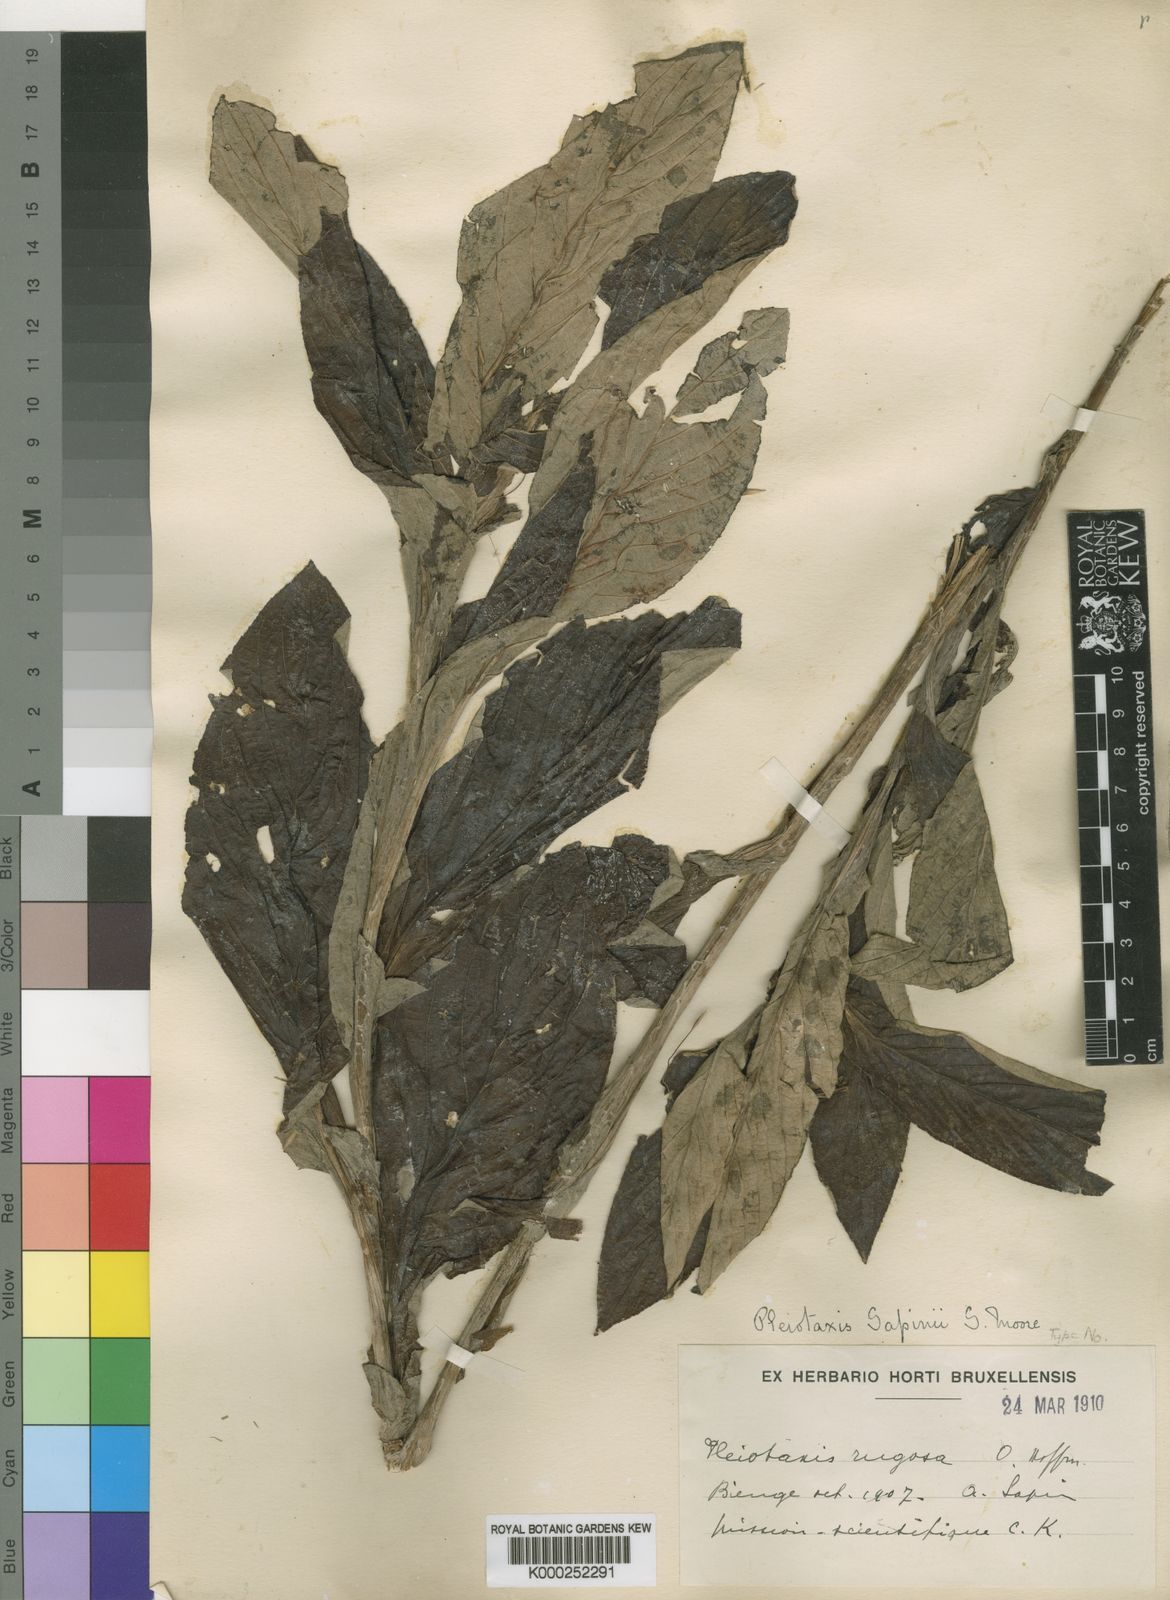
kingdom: Plantae
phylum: Tracheophyta
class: Magnoliopsida
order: Asterales
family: Asteraceae
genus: Pleiotaxis
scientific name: Pleiotaxis pulcherrima
